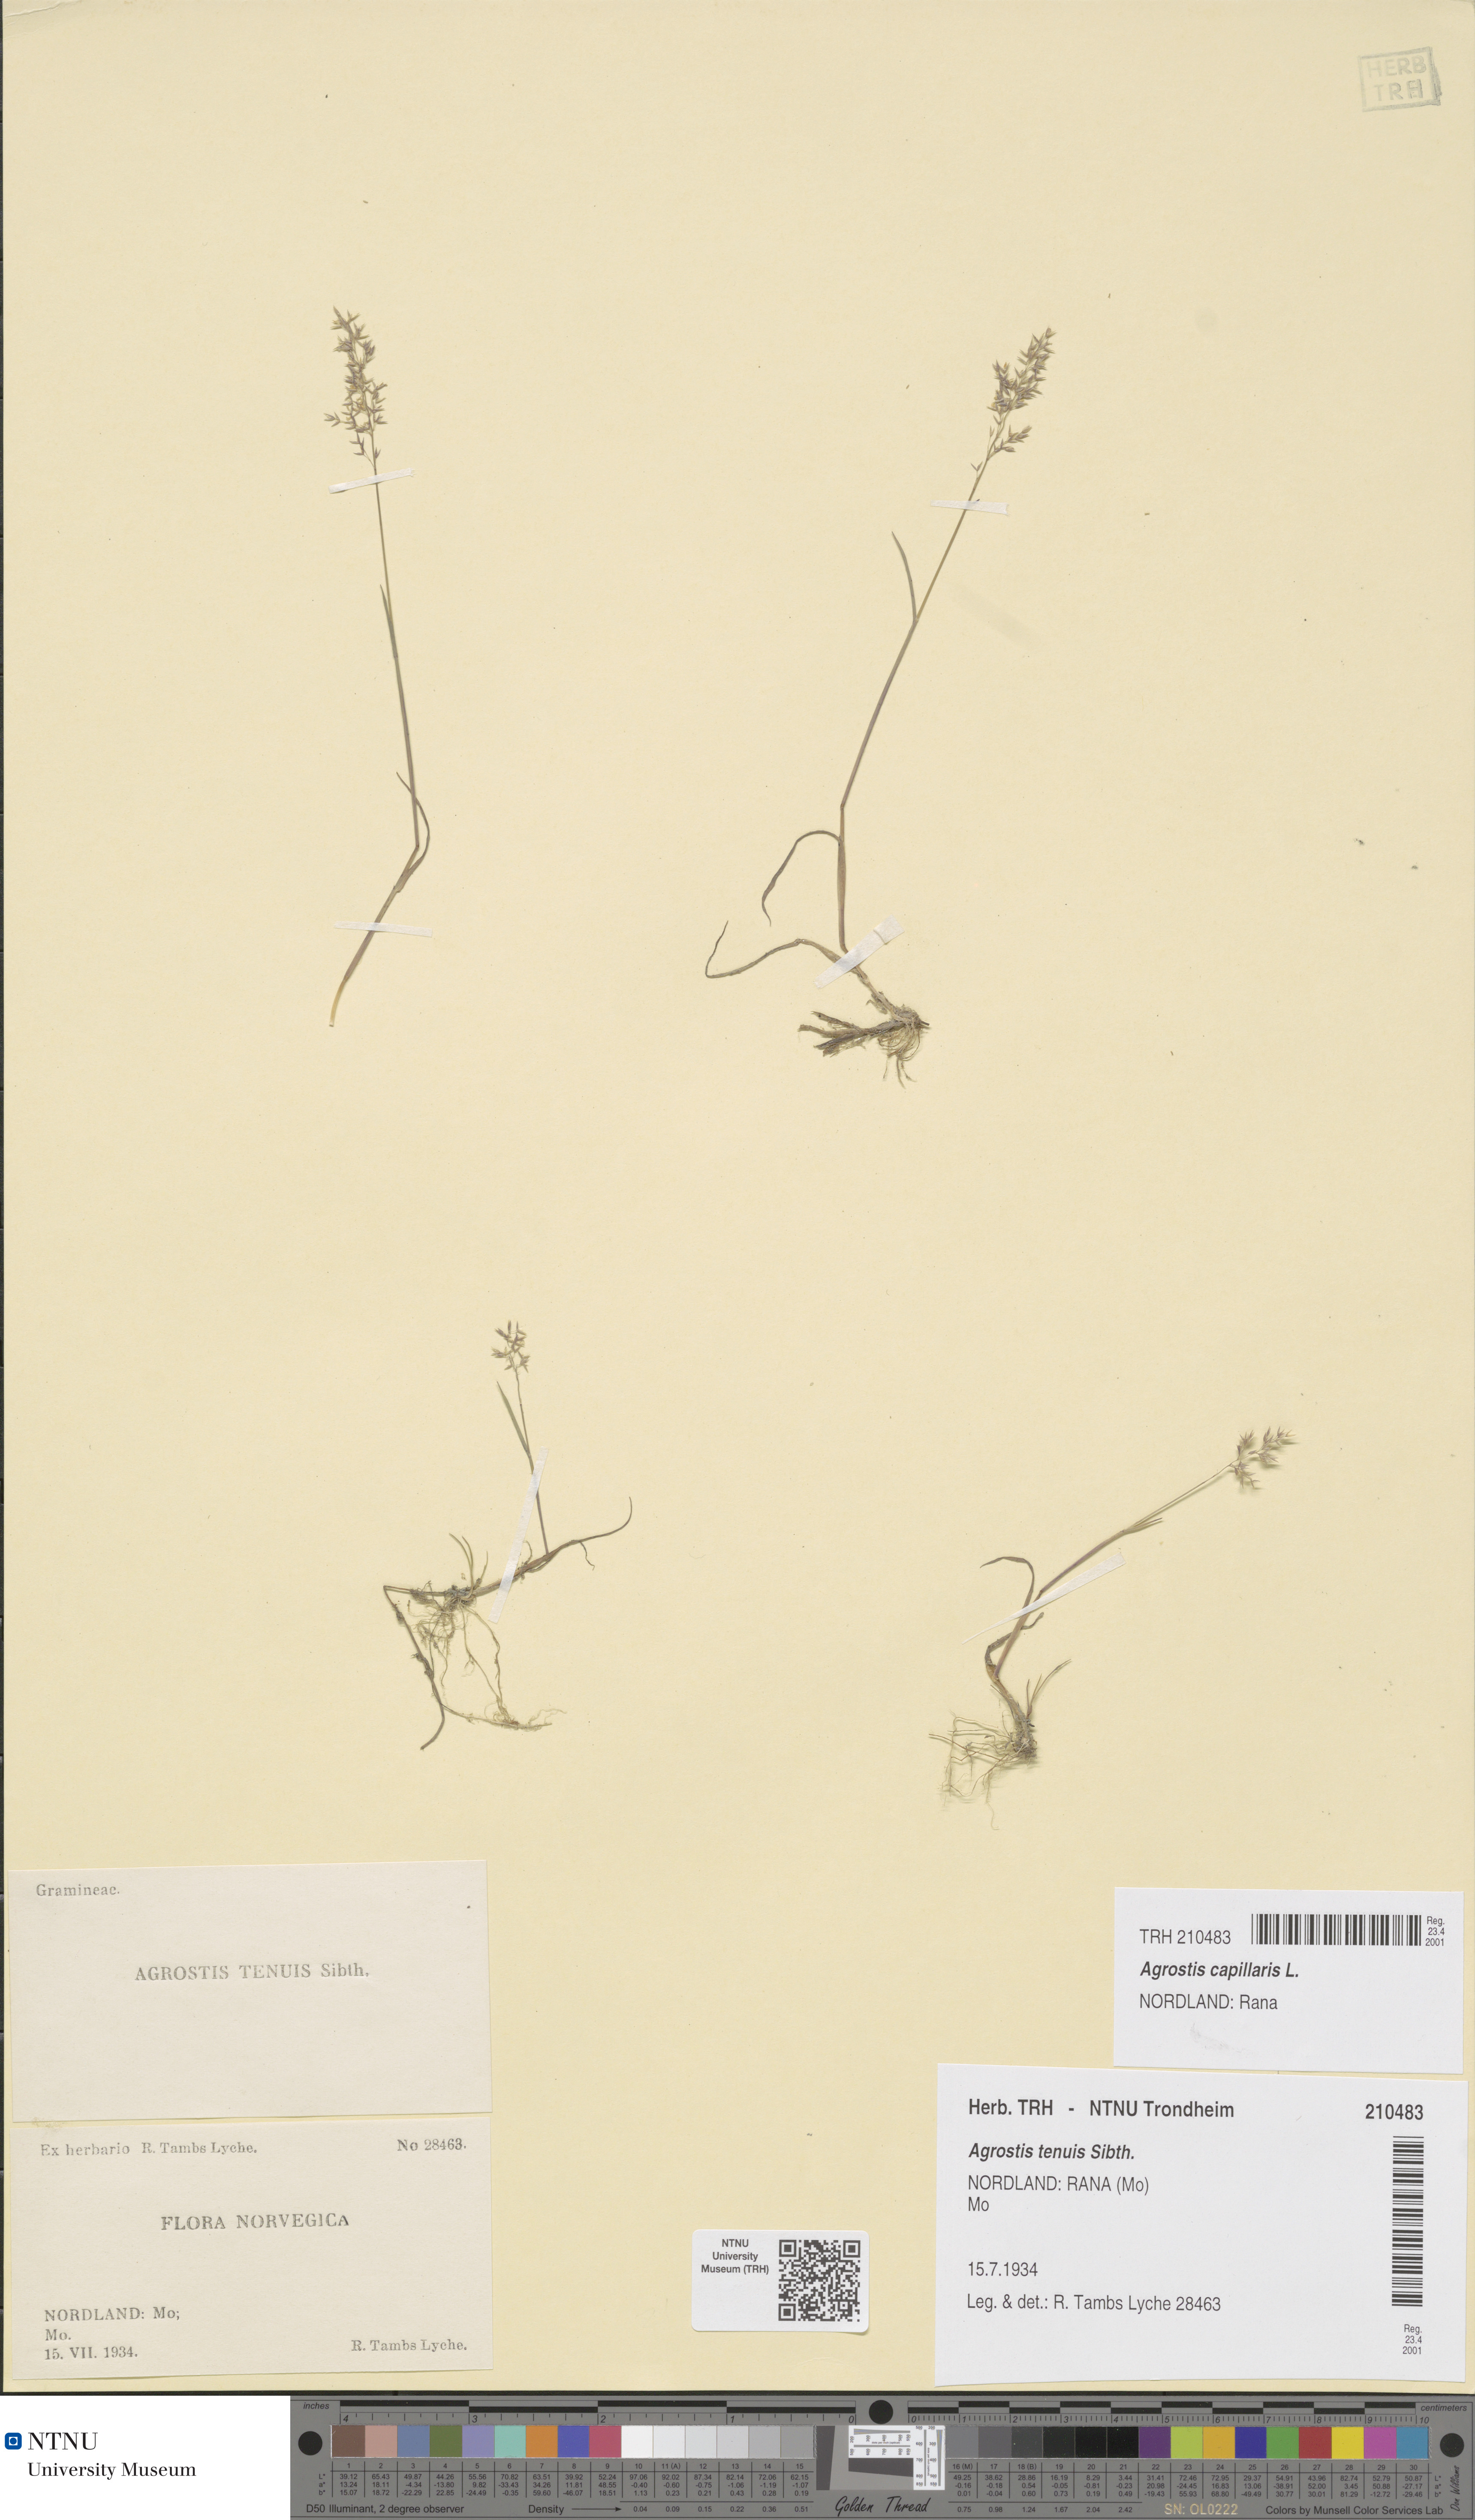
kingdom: Plantae
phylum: Tracheophyta
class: Liliopsida
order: Poales
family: Poaceae
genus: Agrostis
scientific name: Agrostis capillaris
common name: Colonial bentgrass
